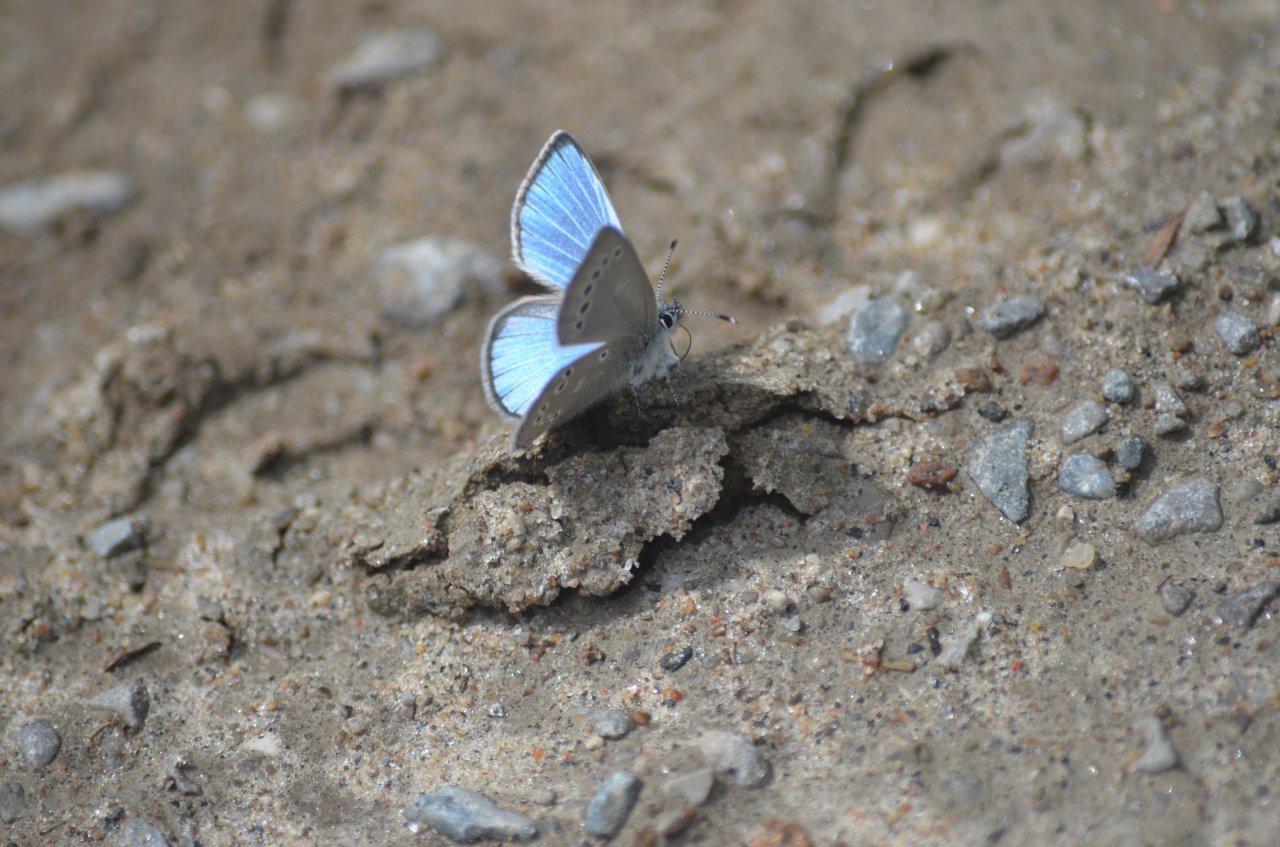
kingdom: Animalia
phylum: Arthropoda
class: Insecta
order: Lepidoptera
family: Lycaenidae
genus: Glaucopsyche
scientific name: Glaucopsyche lygdamus
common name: Silvery Blue
